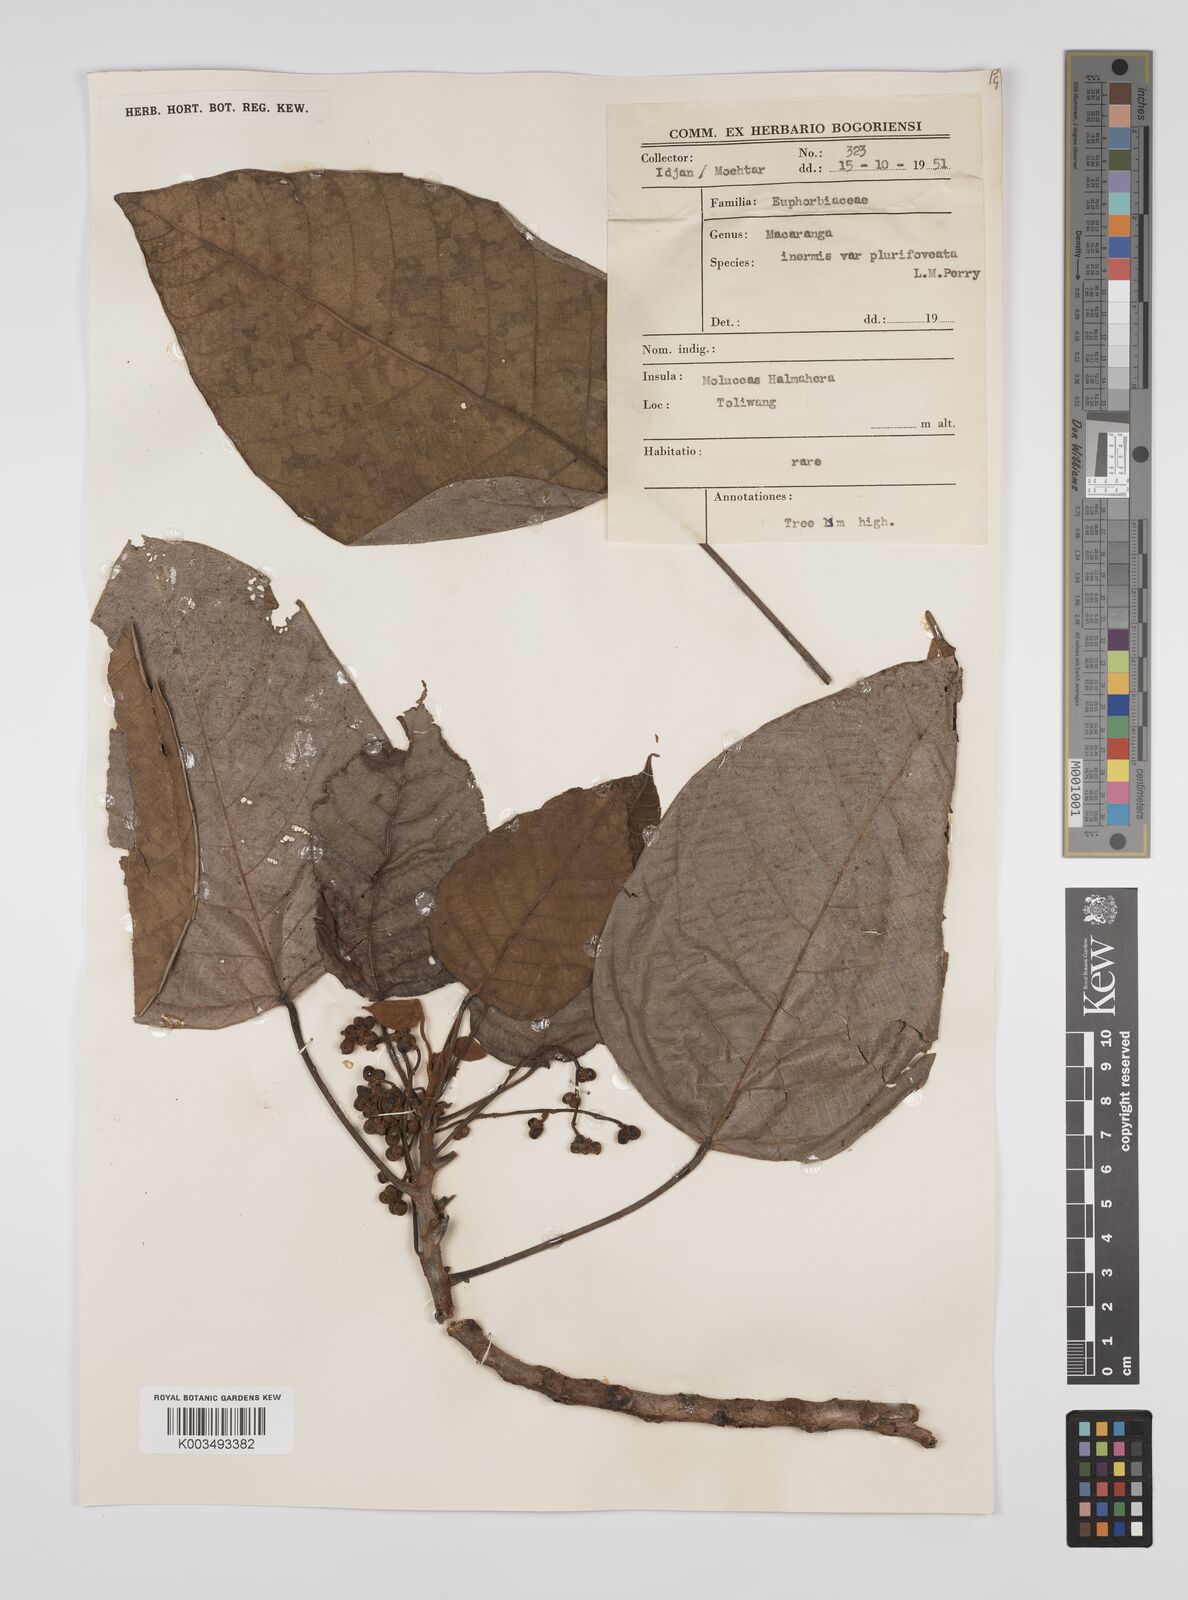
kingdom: Plantae
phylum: Tracheophyta
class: Magnoliopsida
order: Malpighiales
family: Euphorbiaceae
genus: Macaranga
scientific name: Macaranga inermis
